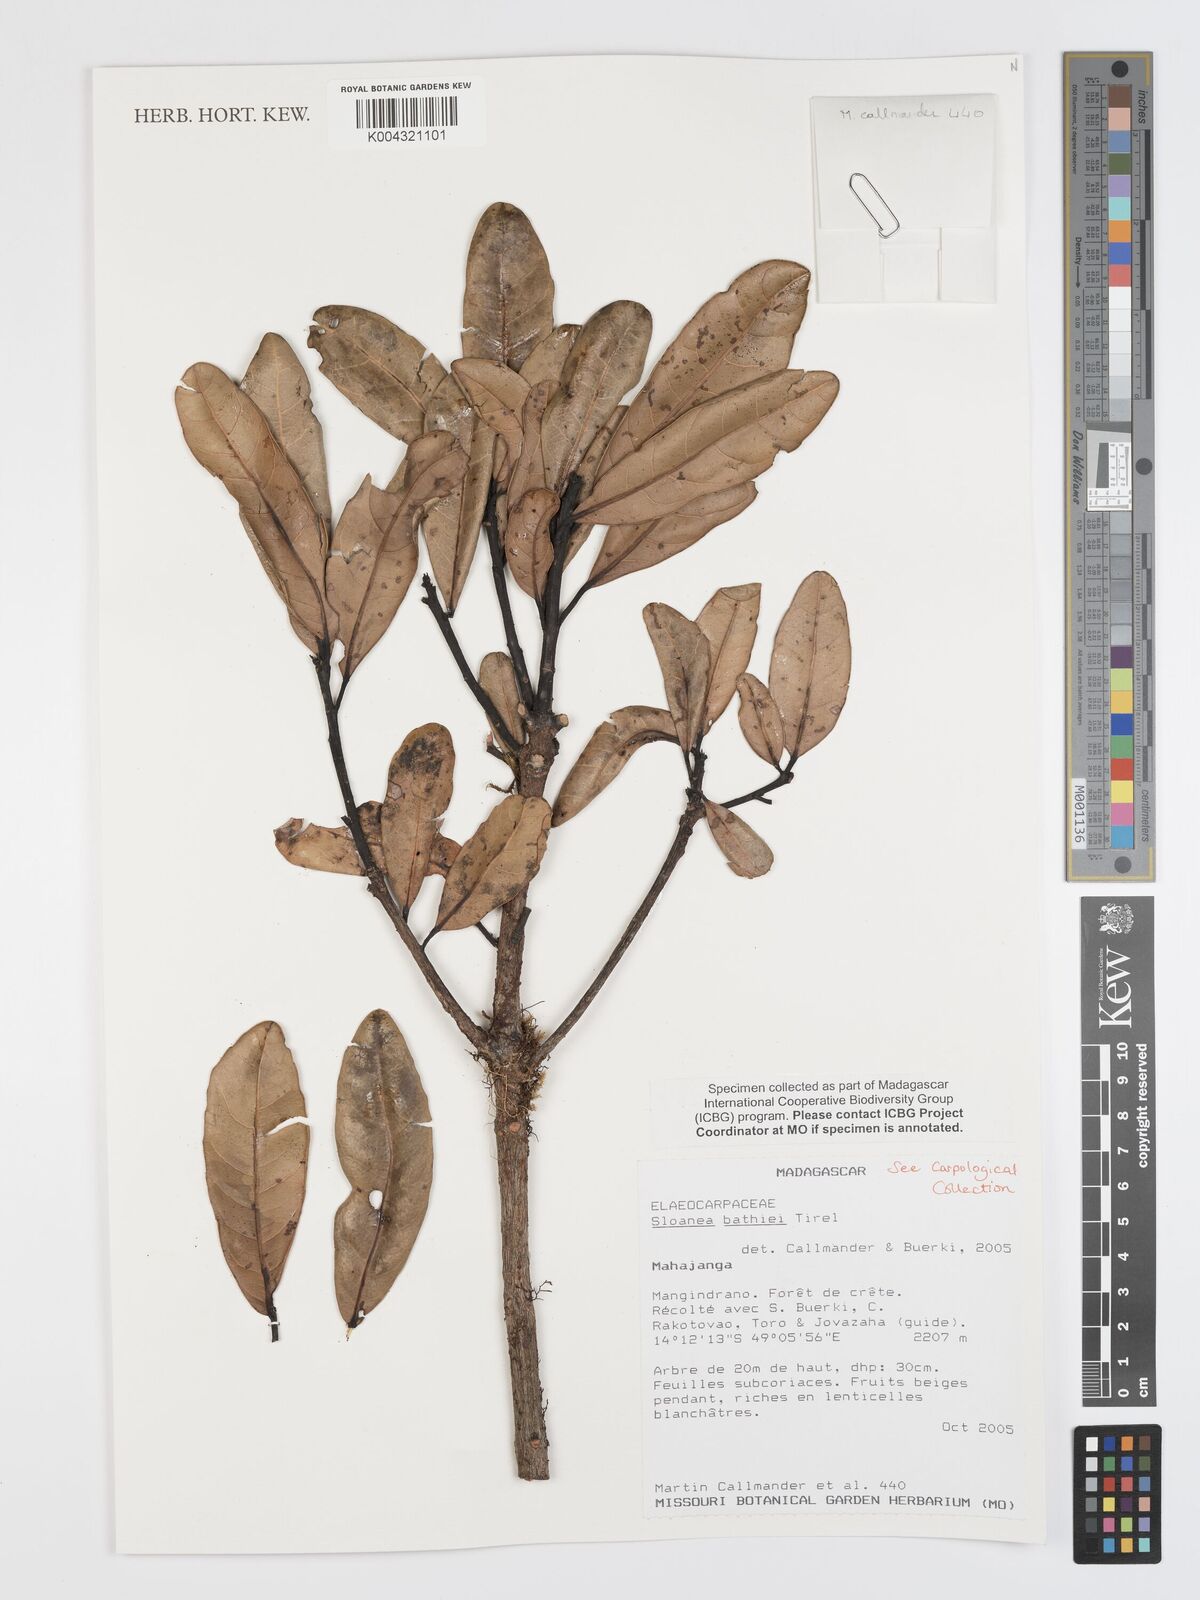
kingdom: Plantae
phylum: Tracheophyta
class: Magnoliopsida
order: Oxalidales
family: Elaeocarpaceae
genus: Sloanea
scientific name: Sloanea bathiei
